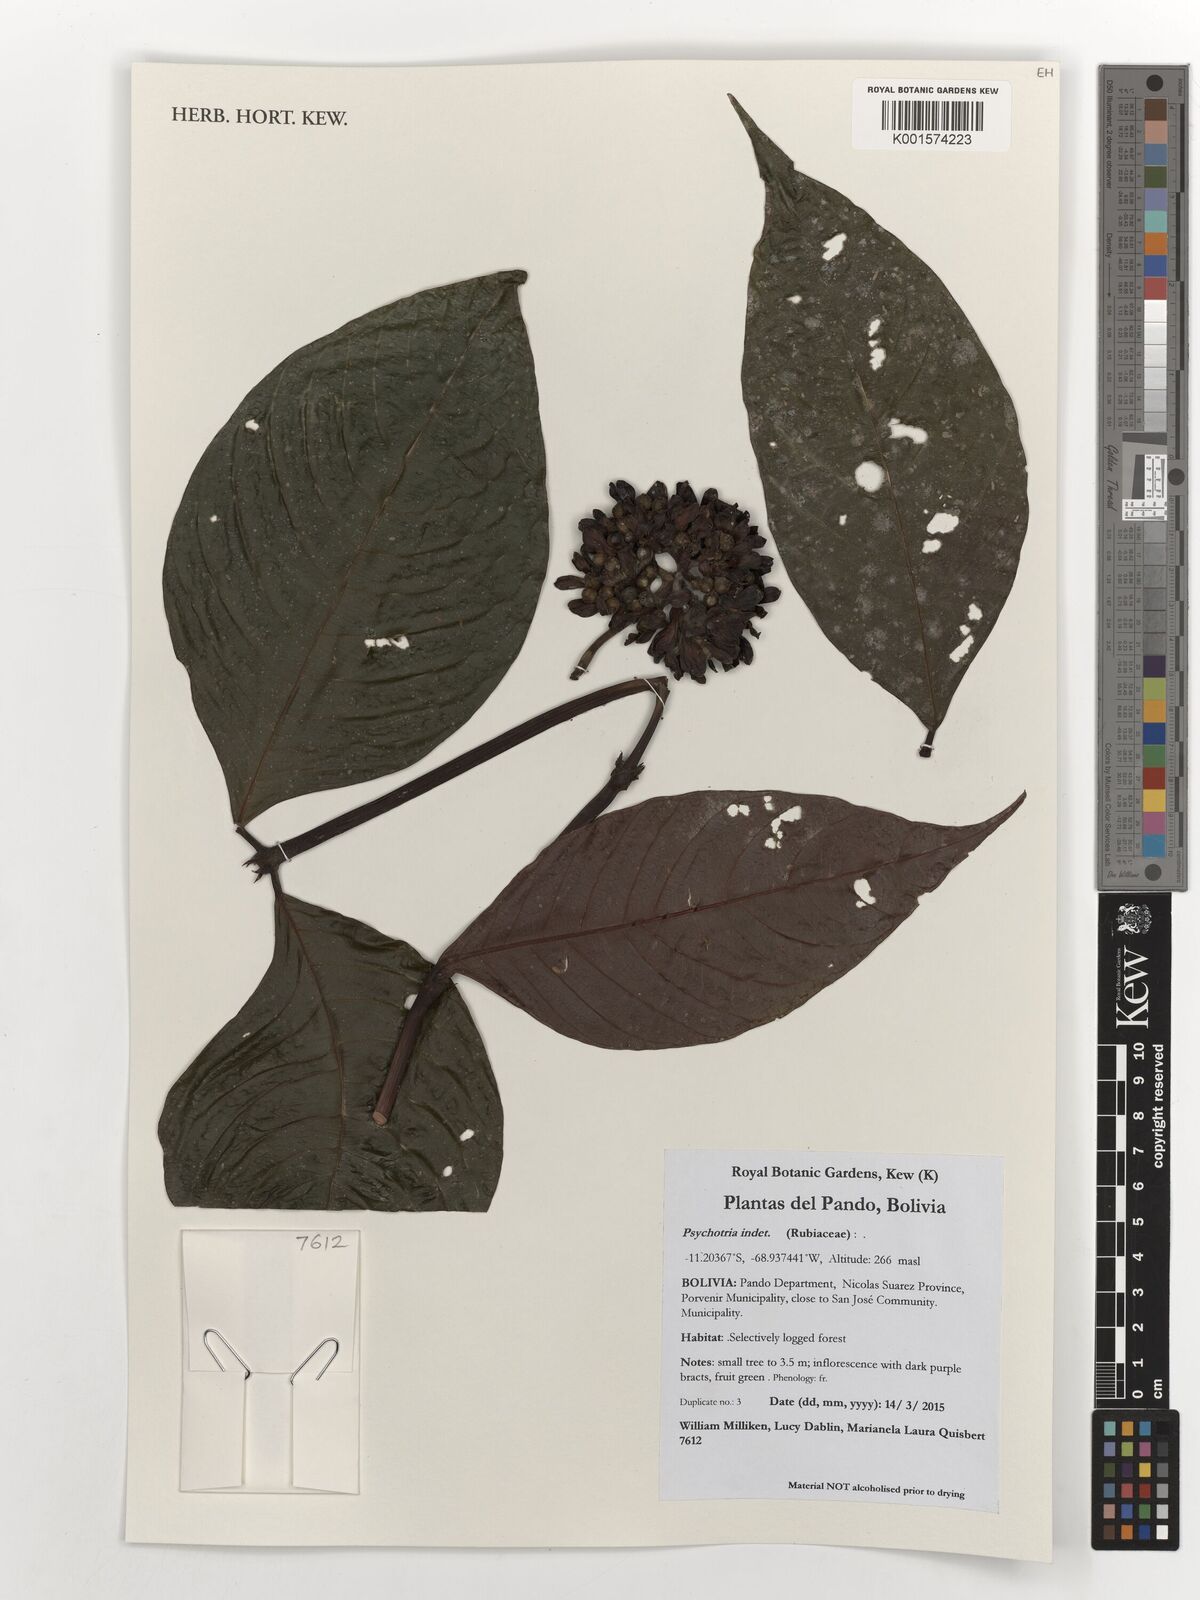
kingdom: Plantae
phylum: Tracheophyta
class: Magnoliopsida
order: Gentianales
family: Rubiaceae
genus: Psychotria
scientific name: Psychotria
